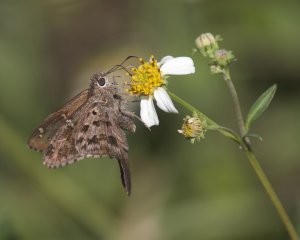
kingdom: Animalia
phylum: Arthropoda
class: Insecta
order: Lepidoptera
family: Hesperiidae
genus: Urbanus
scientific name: Urbanus dorantes
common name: Dorantes Longtail
